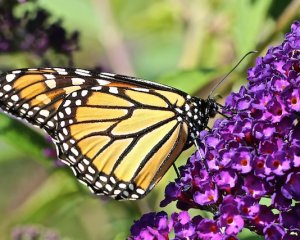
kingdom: Animalia
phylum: Arthropoda
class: Insecta
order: Lepidoptera
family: Nymphalidae
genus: Danaus
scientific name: Danaus plexippus
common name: Monarch
